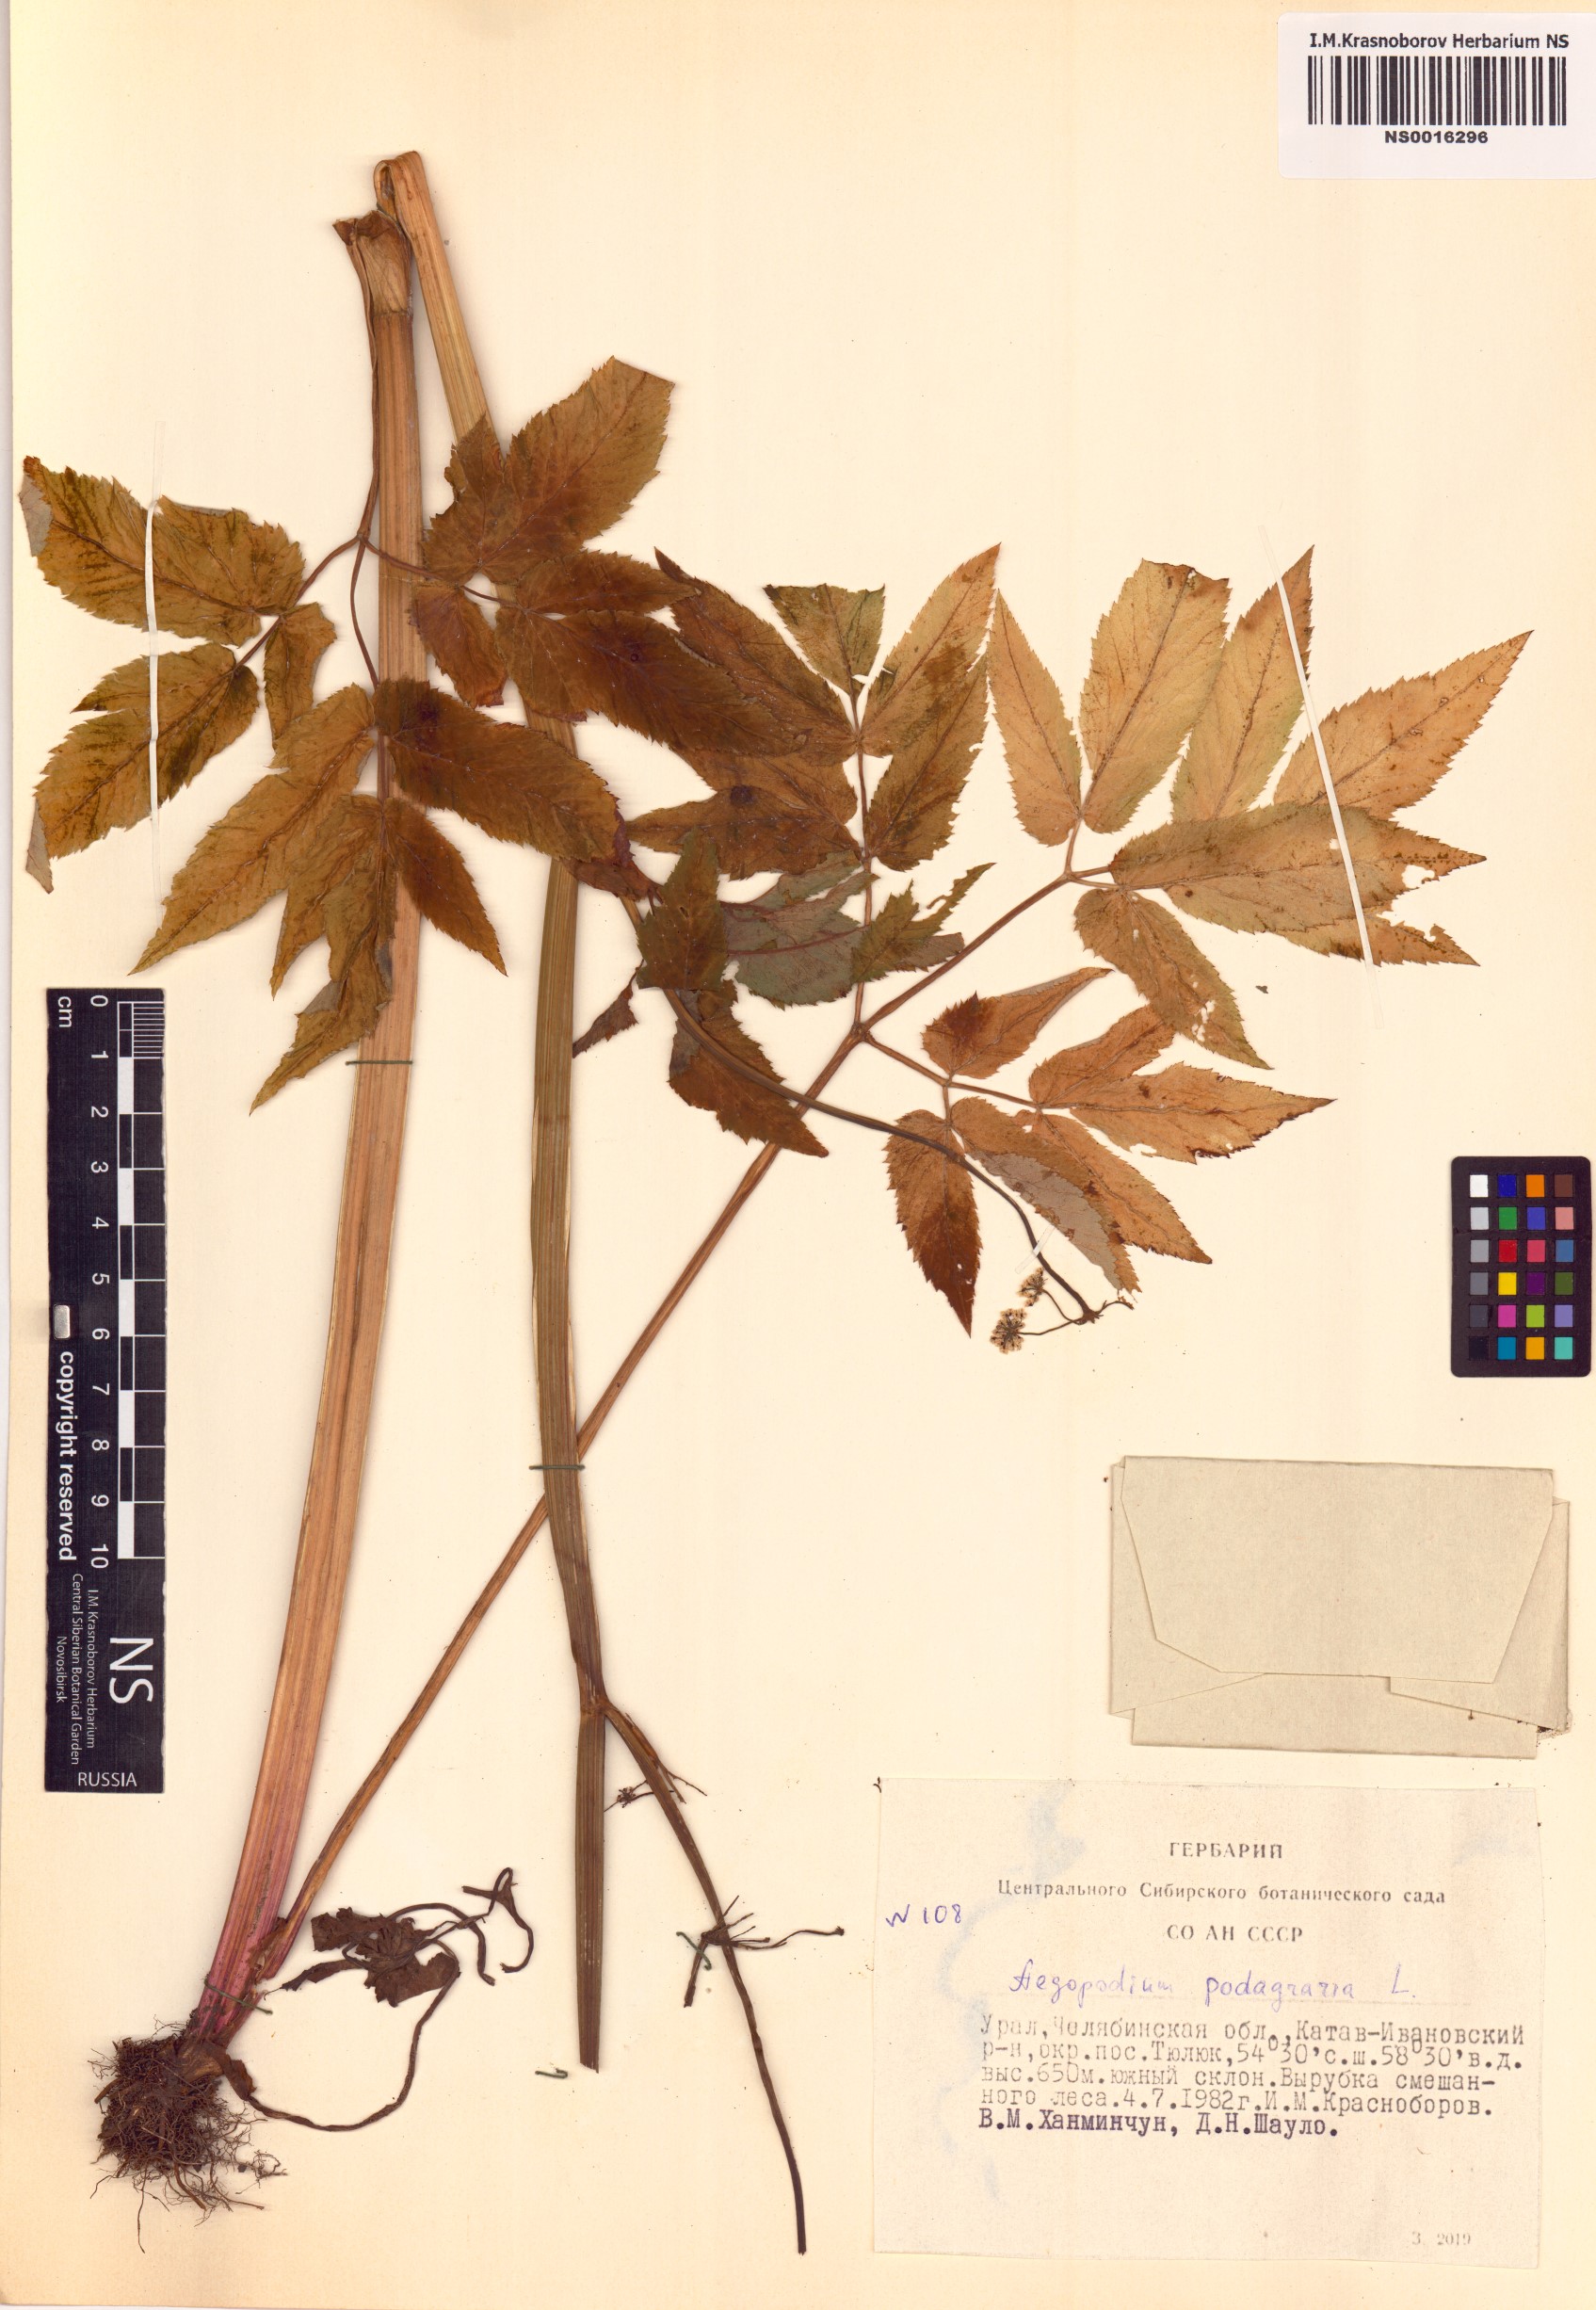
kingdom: Plantae
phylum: Tracheophyta
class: Magnoliopsida
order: Apiales
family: Apiaceae
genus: Aegopodium
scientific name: Aegopodium podagraria
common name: Ground-elder
